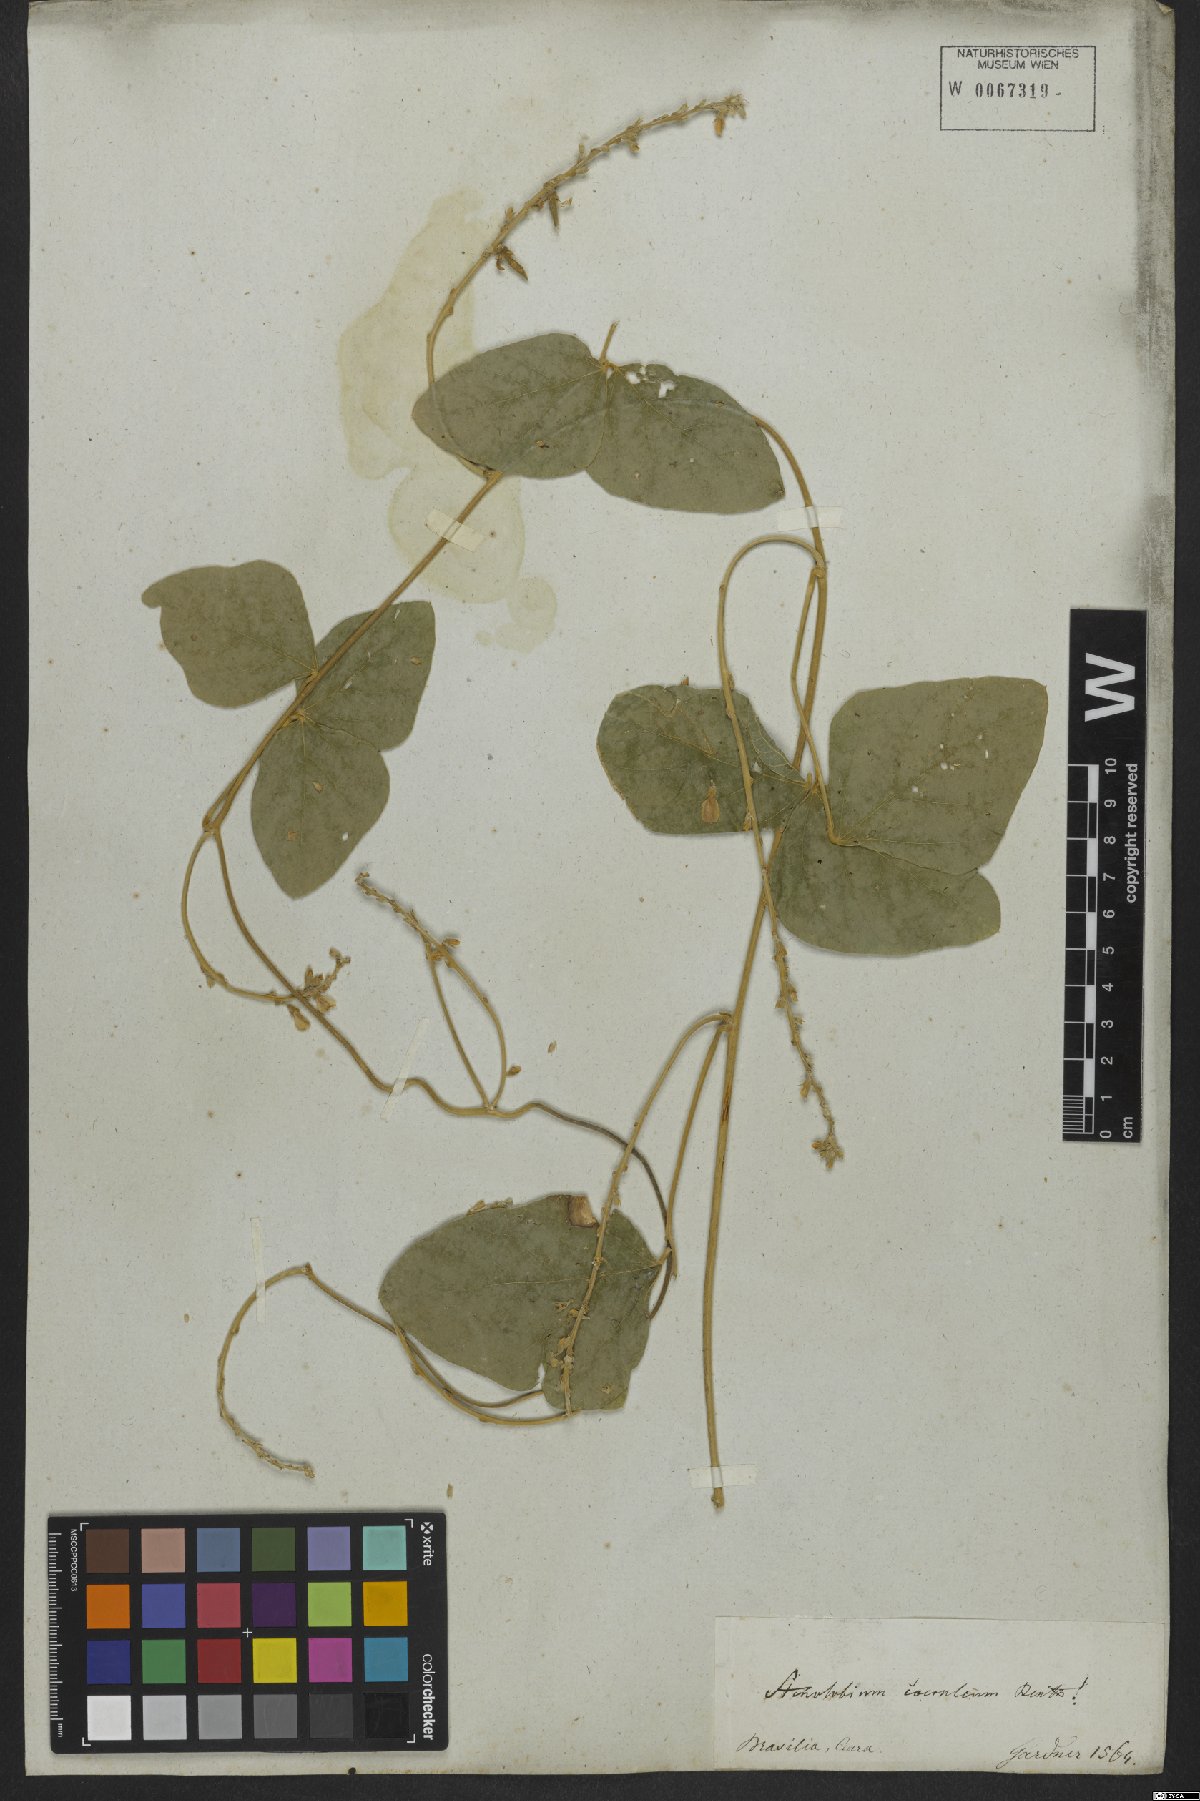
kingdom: Plantae
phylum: Tracheophyta
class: Magnoliopsida
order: Fabales
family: Fabaceae
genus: Calopogonium
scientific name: Calopogonium caeruleum
